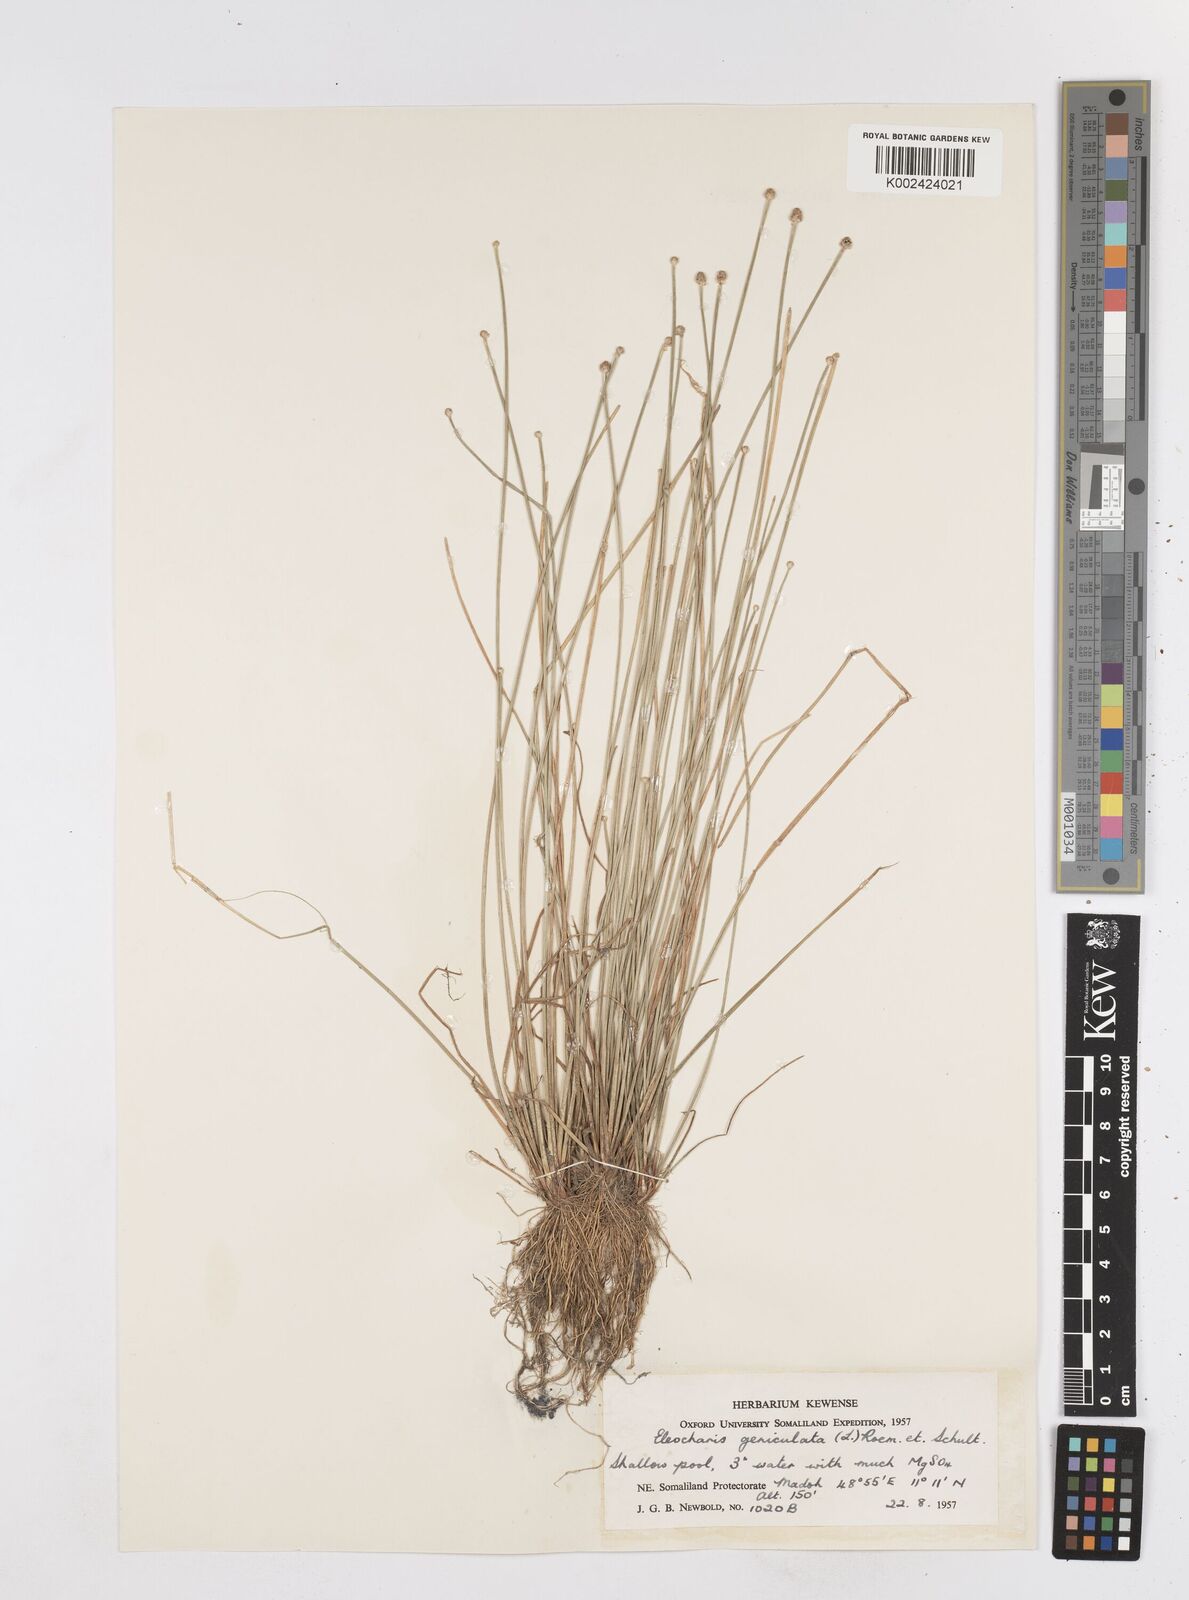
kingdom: Plantae
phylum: Tracheophyta
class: Liliopsida
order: Poales
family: Cyperaceae
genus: Eleocharis
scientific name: Eleocharis geniculata
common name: Canada spikesedge
